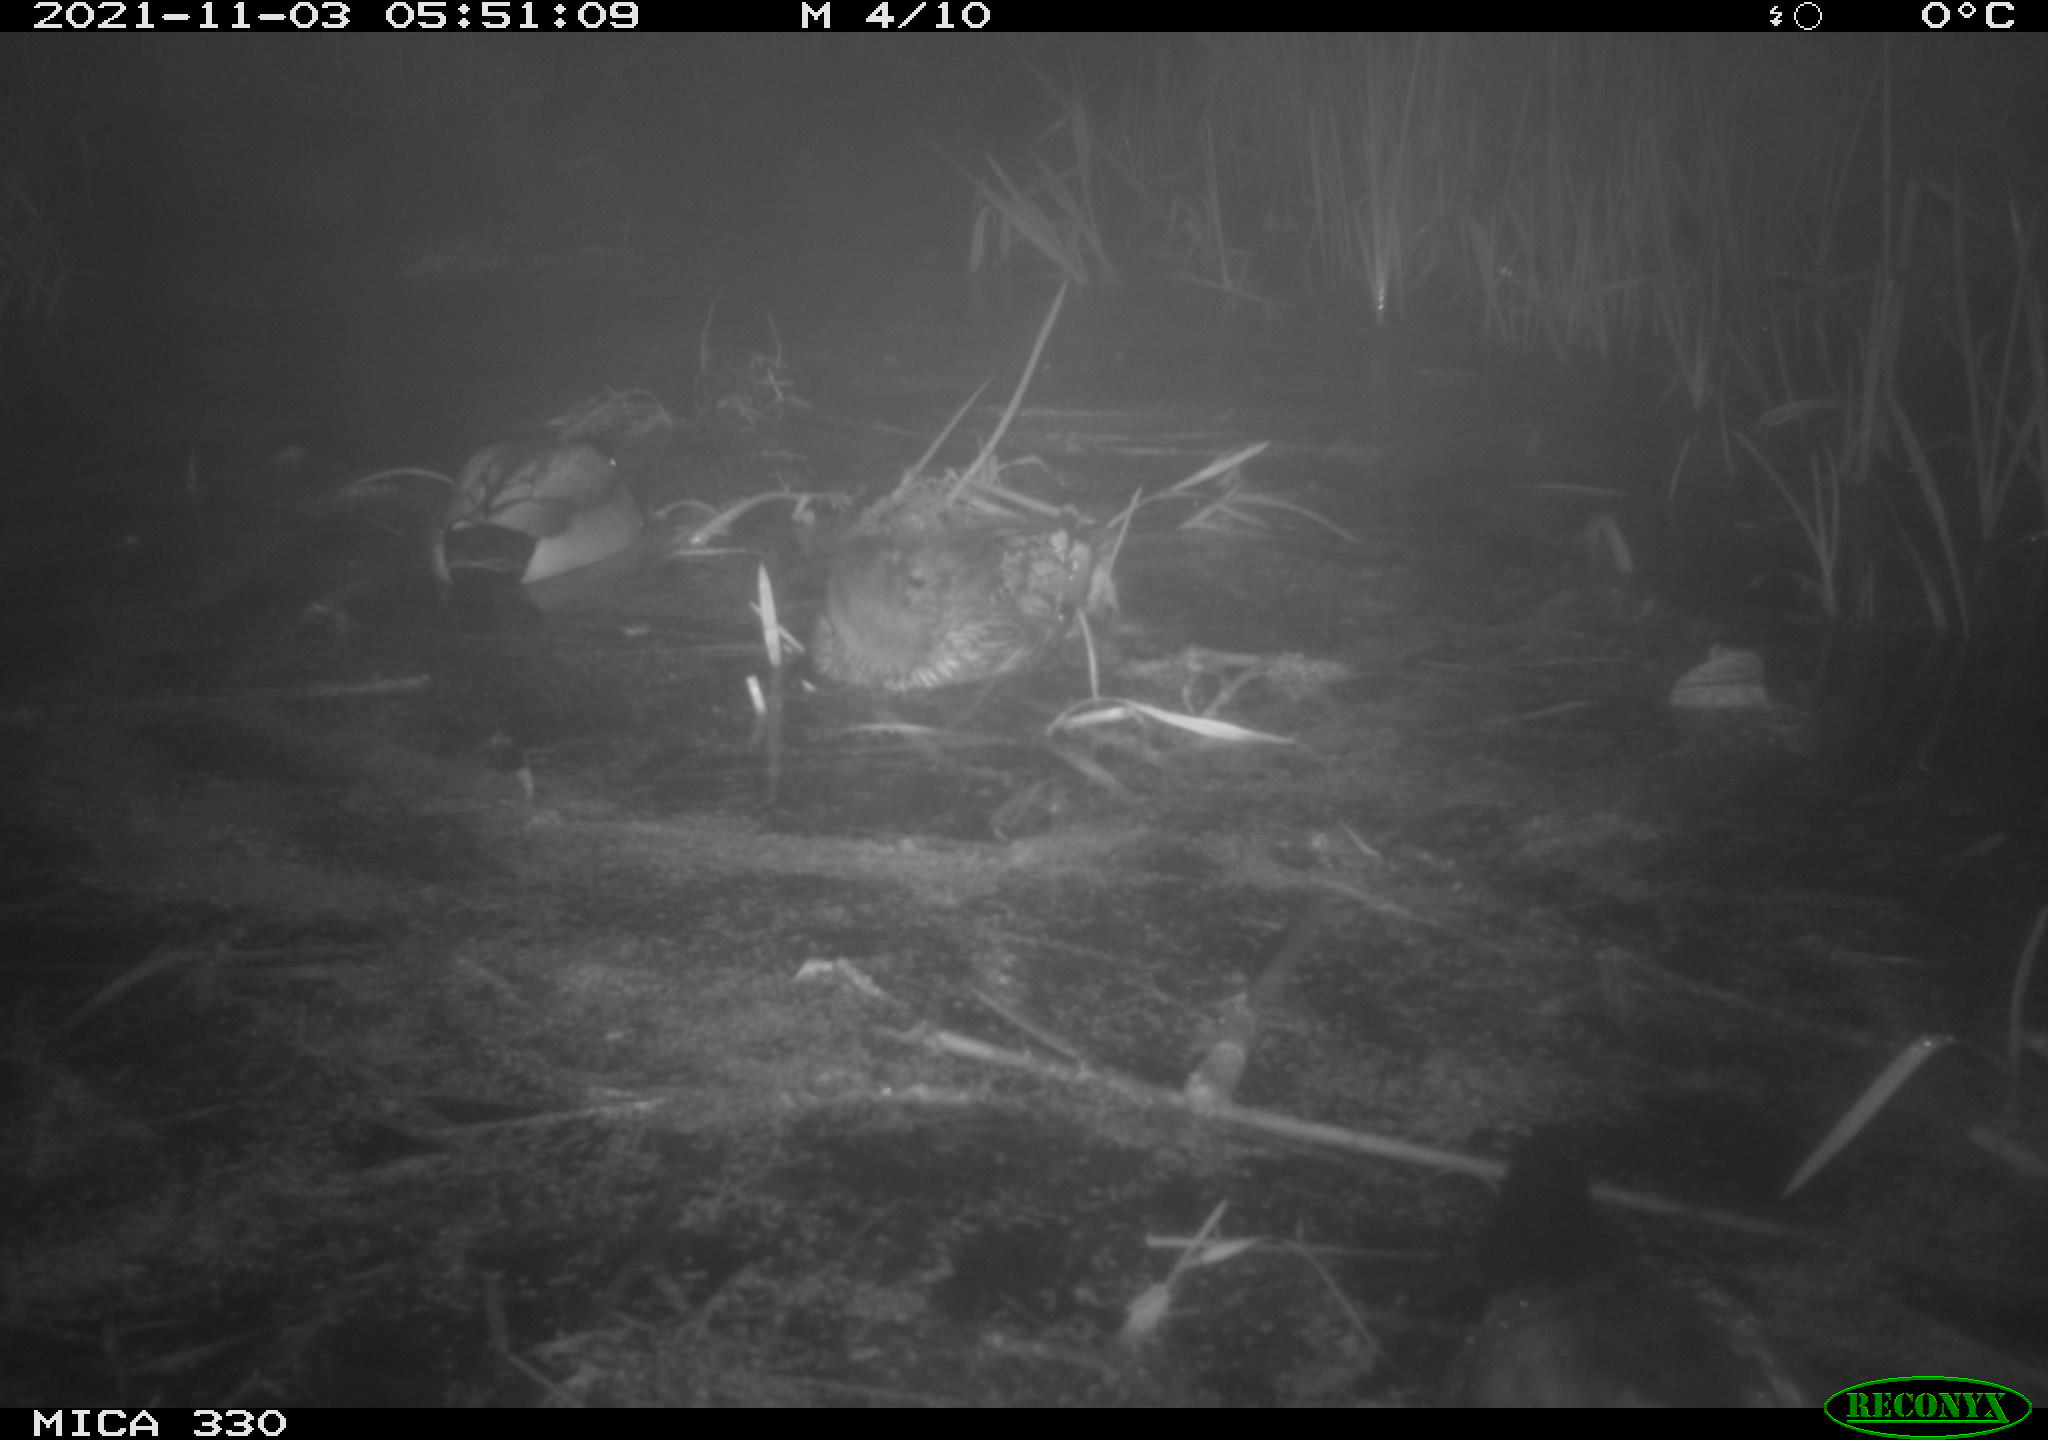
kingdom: Animalia
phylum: Chordata
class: Aves
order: Anseriformes
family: Anatidae
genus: Anas
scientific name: Anas platyrhynchos
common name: Mallard
